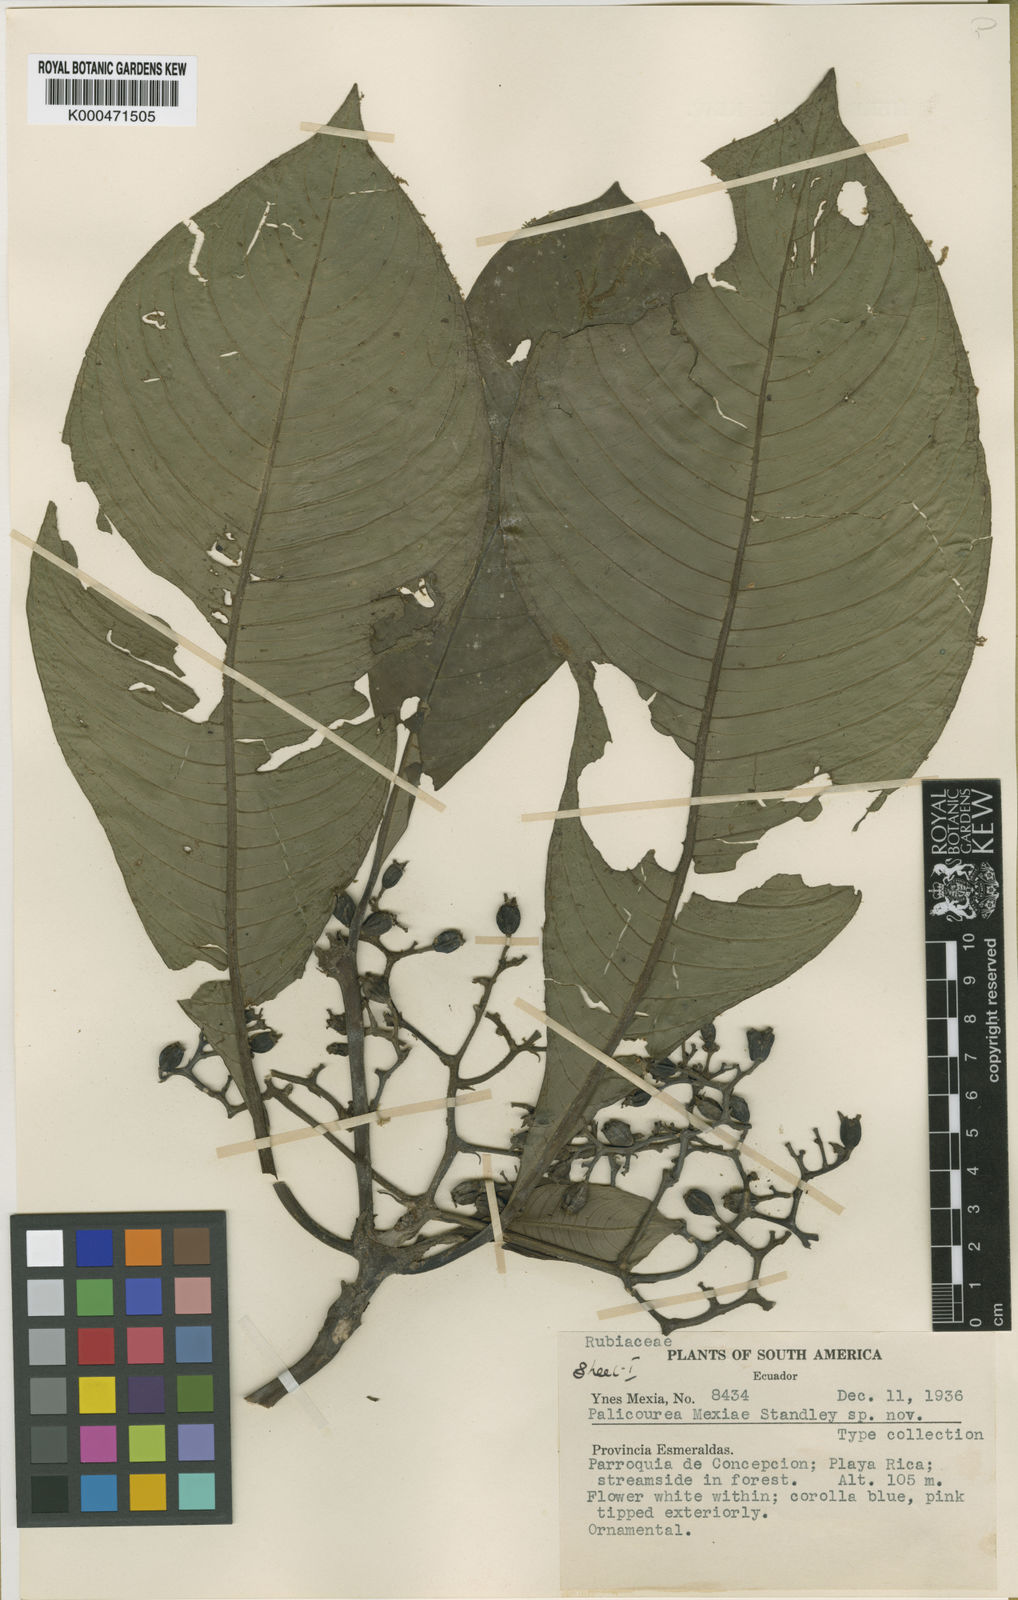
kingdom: Plantae
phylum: Tracheophyta
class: Magnoliopsida
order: Gentianales
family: Rubiaceae
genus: Ditrichanthus
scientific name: Ditrichanthus seemannii
